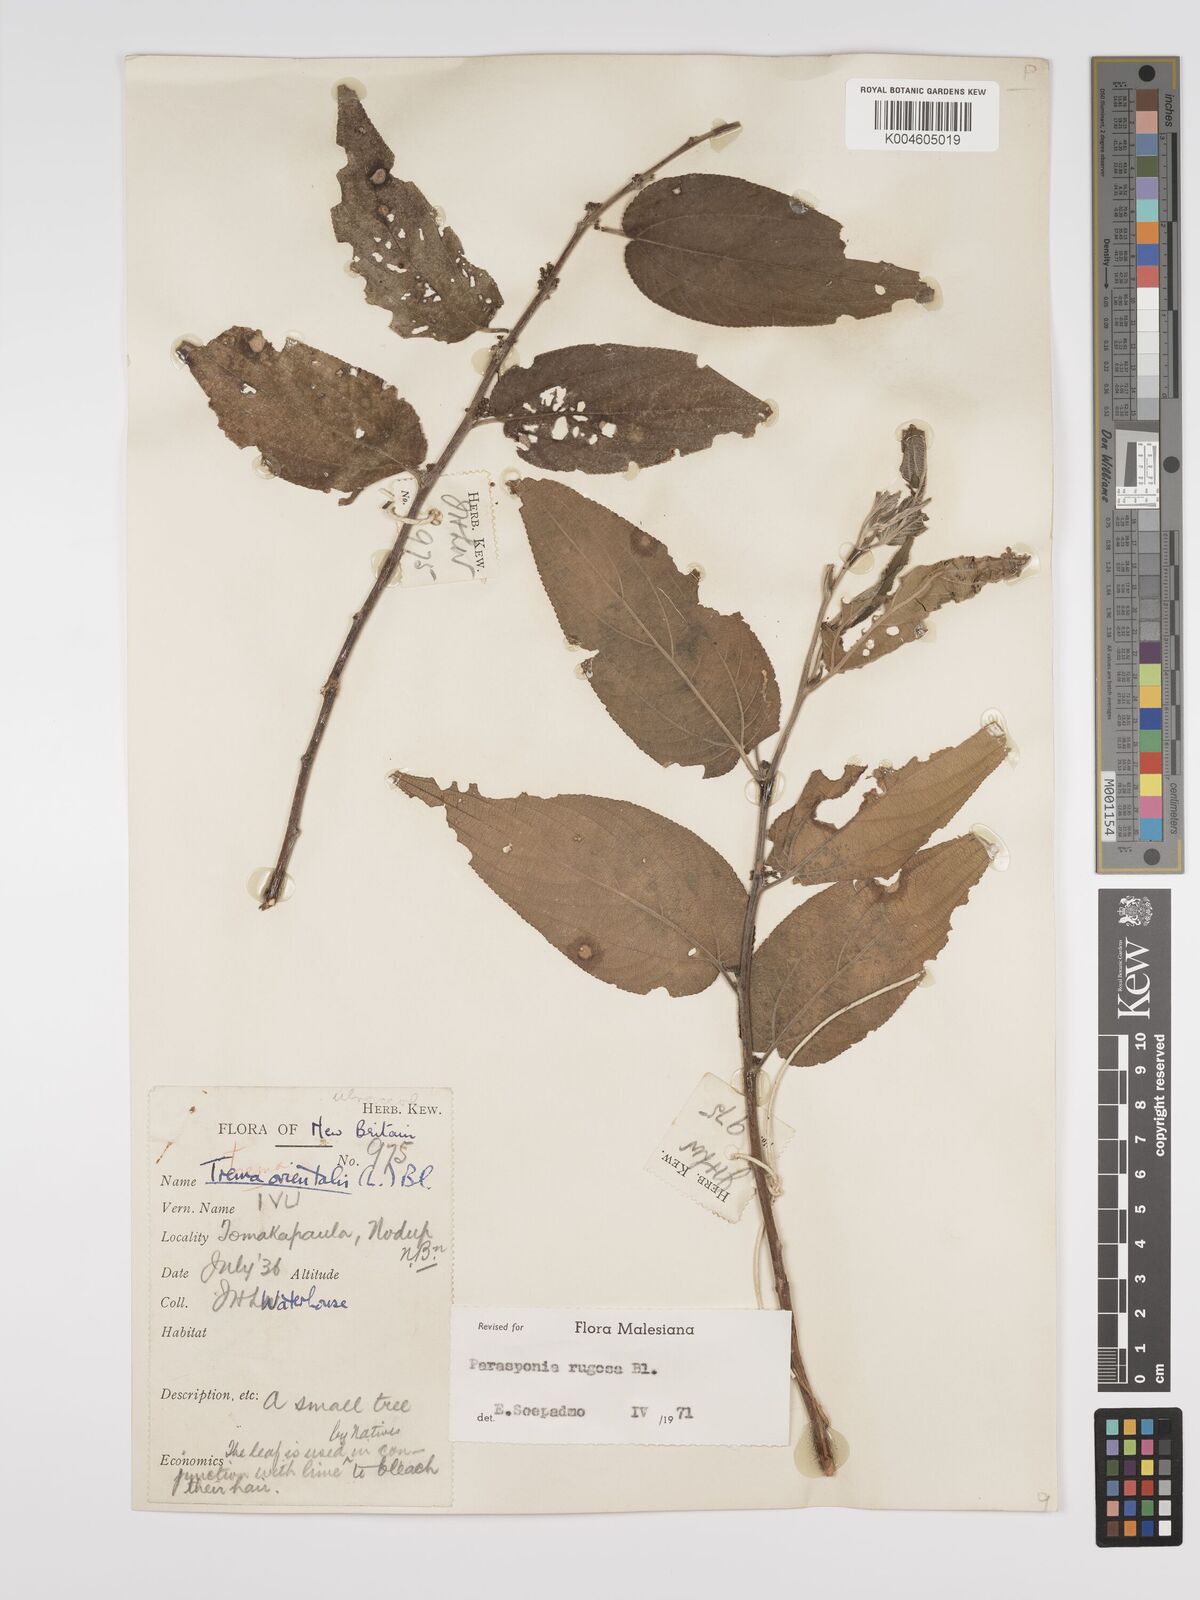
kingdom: Plantae
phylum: Tracheophyta
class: Magnoliopsida
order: Rosales
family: Cannabaceae
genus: Trema
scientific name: Trema eurhynchum
